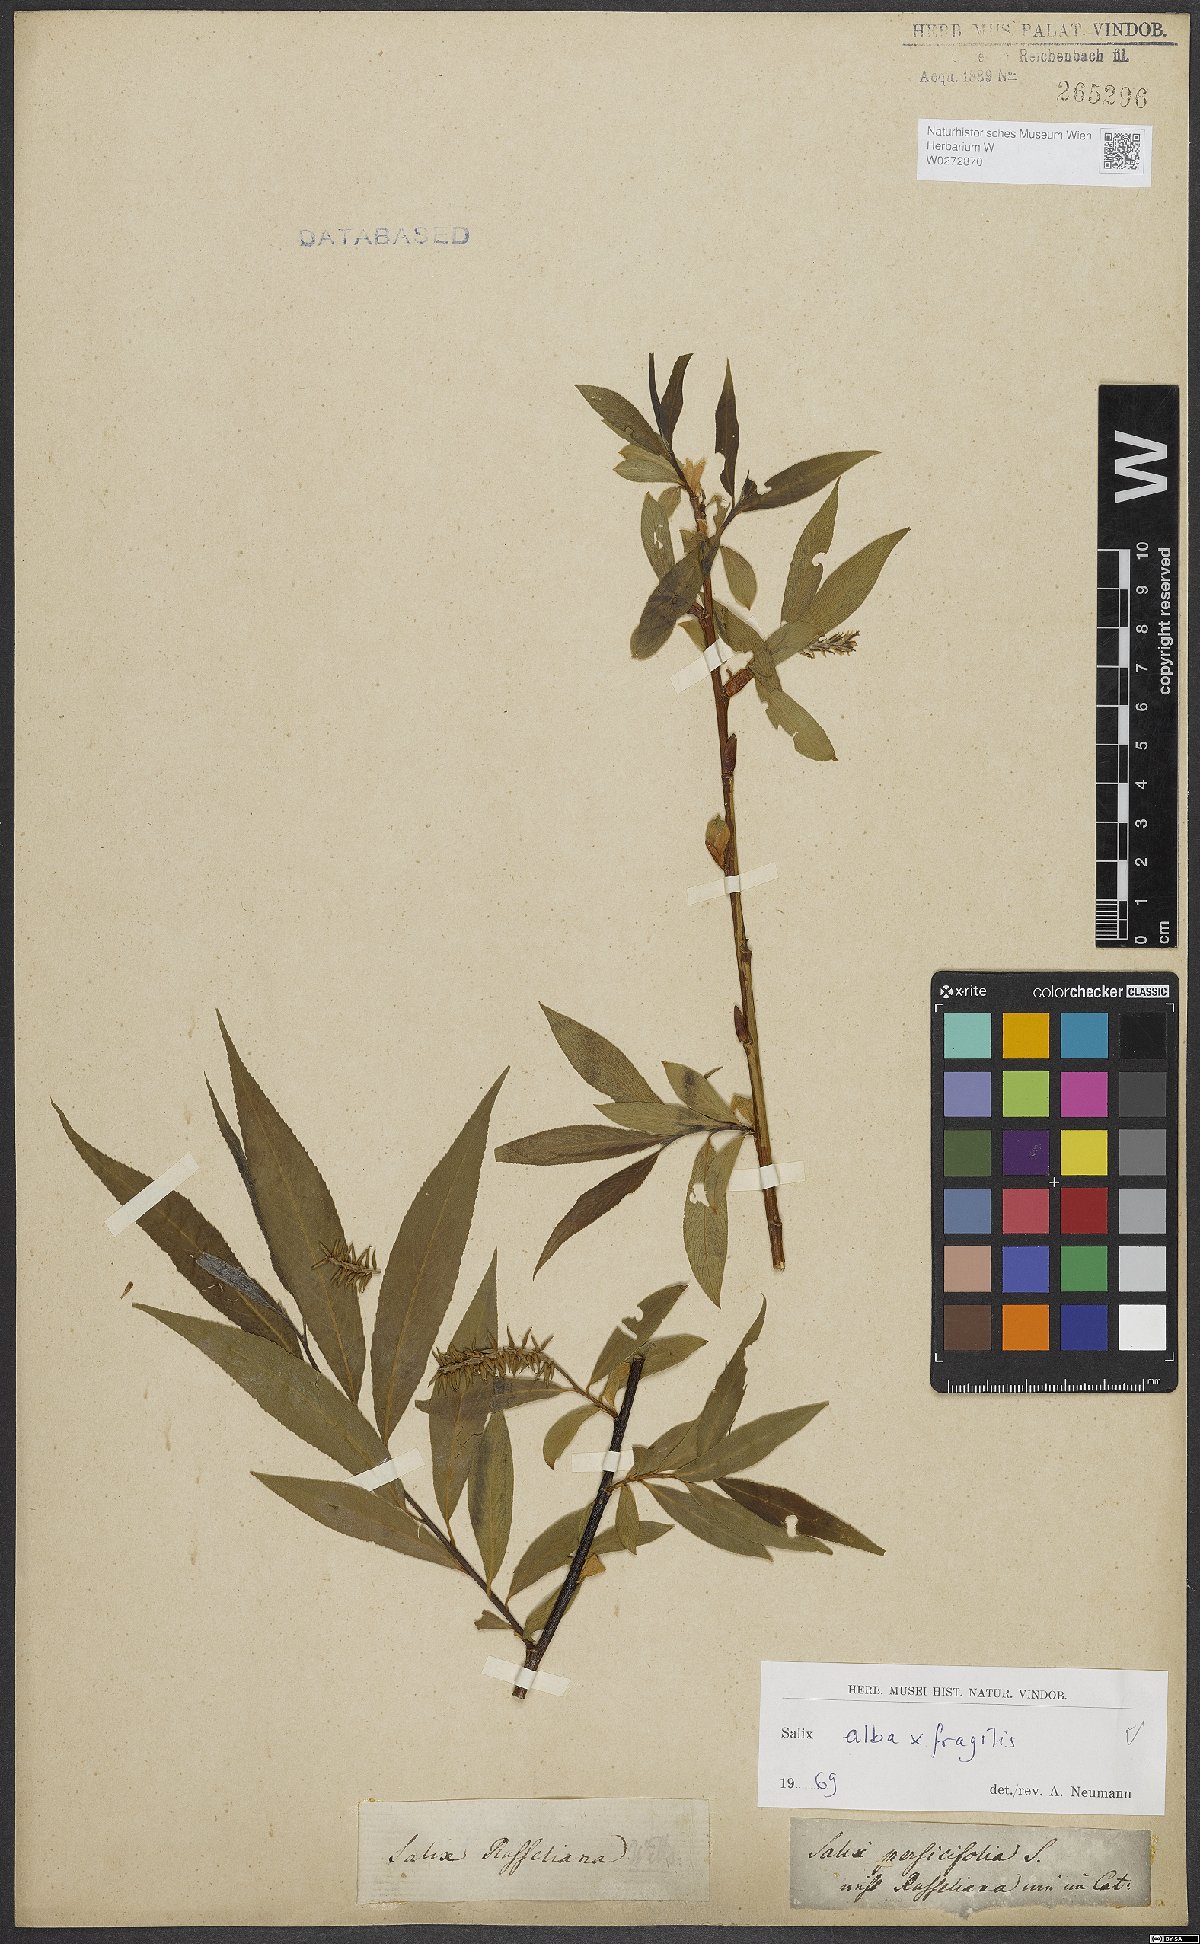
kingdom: Plantae
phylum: Tracheophyta
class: Magnoliopsida
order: Malpighiales
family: Salicaceae
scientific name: Salicaceae
